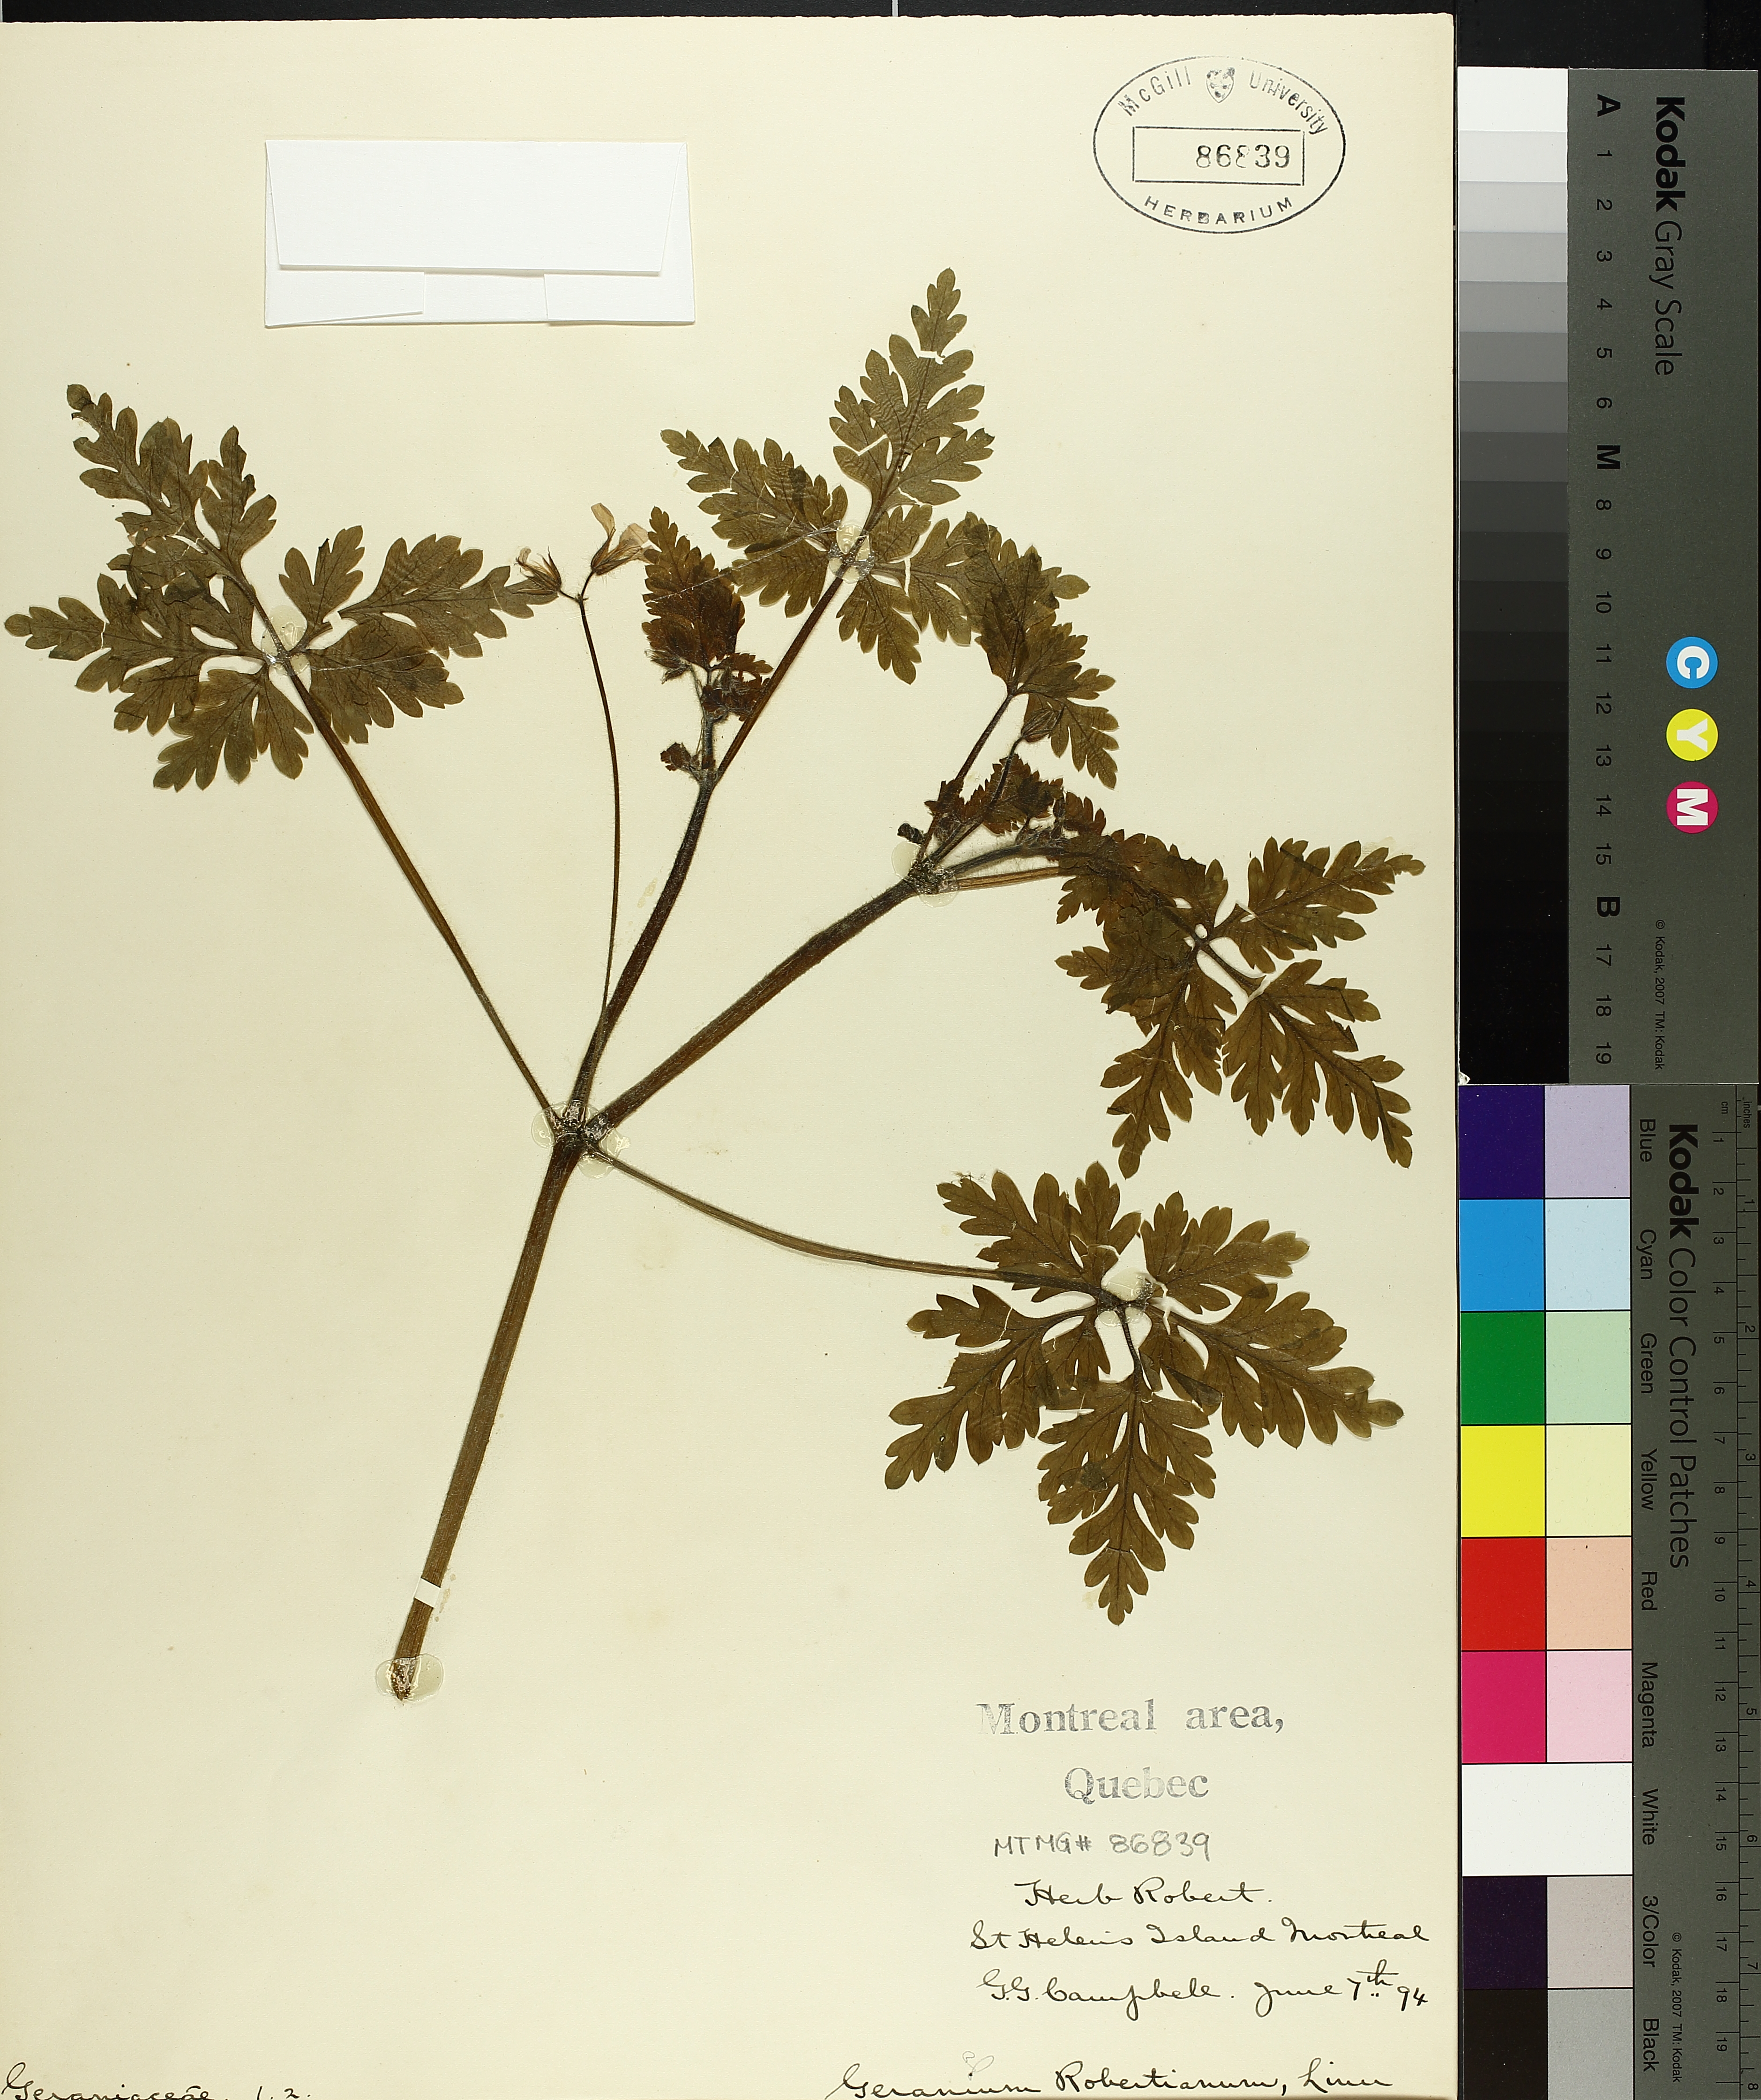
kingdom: Plantae
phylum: Tracheophyta
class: Magnoliopsida
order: Geraniales
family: Geraniaceae
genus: Geranium
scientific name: Geranium robertianum
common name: Herb-robert
